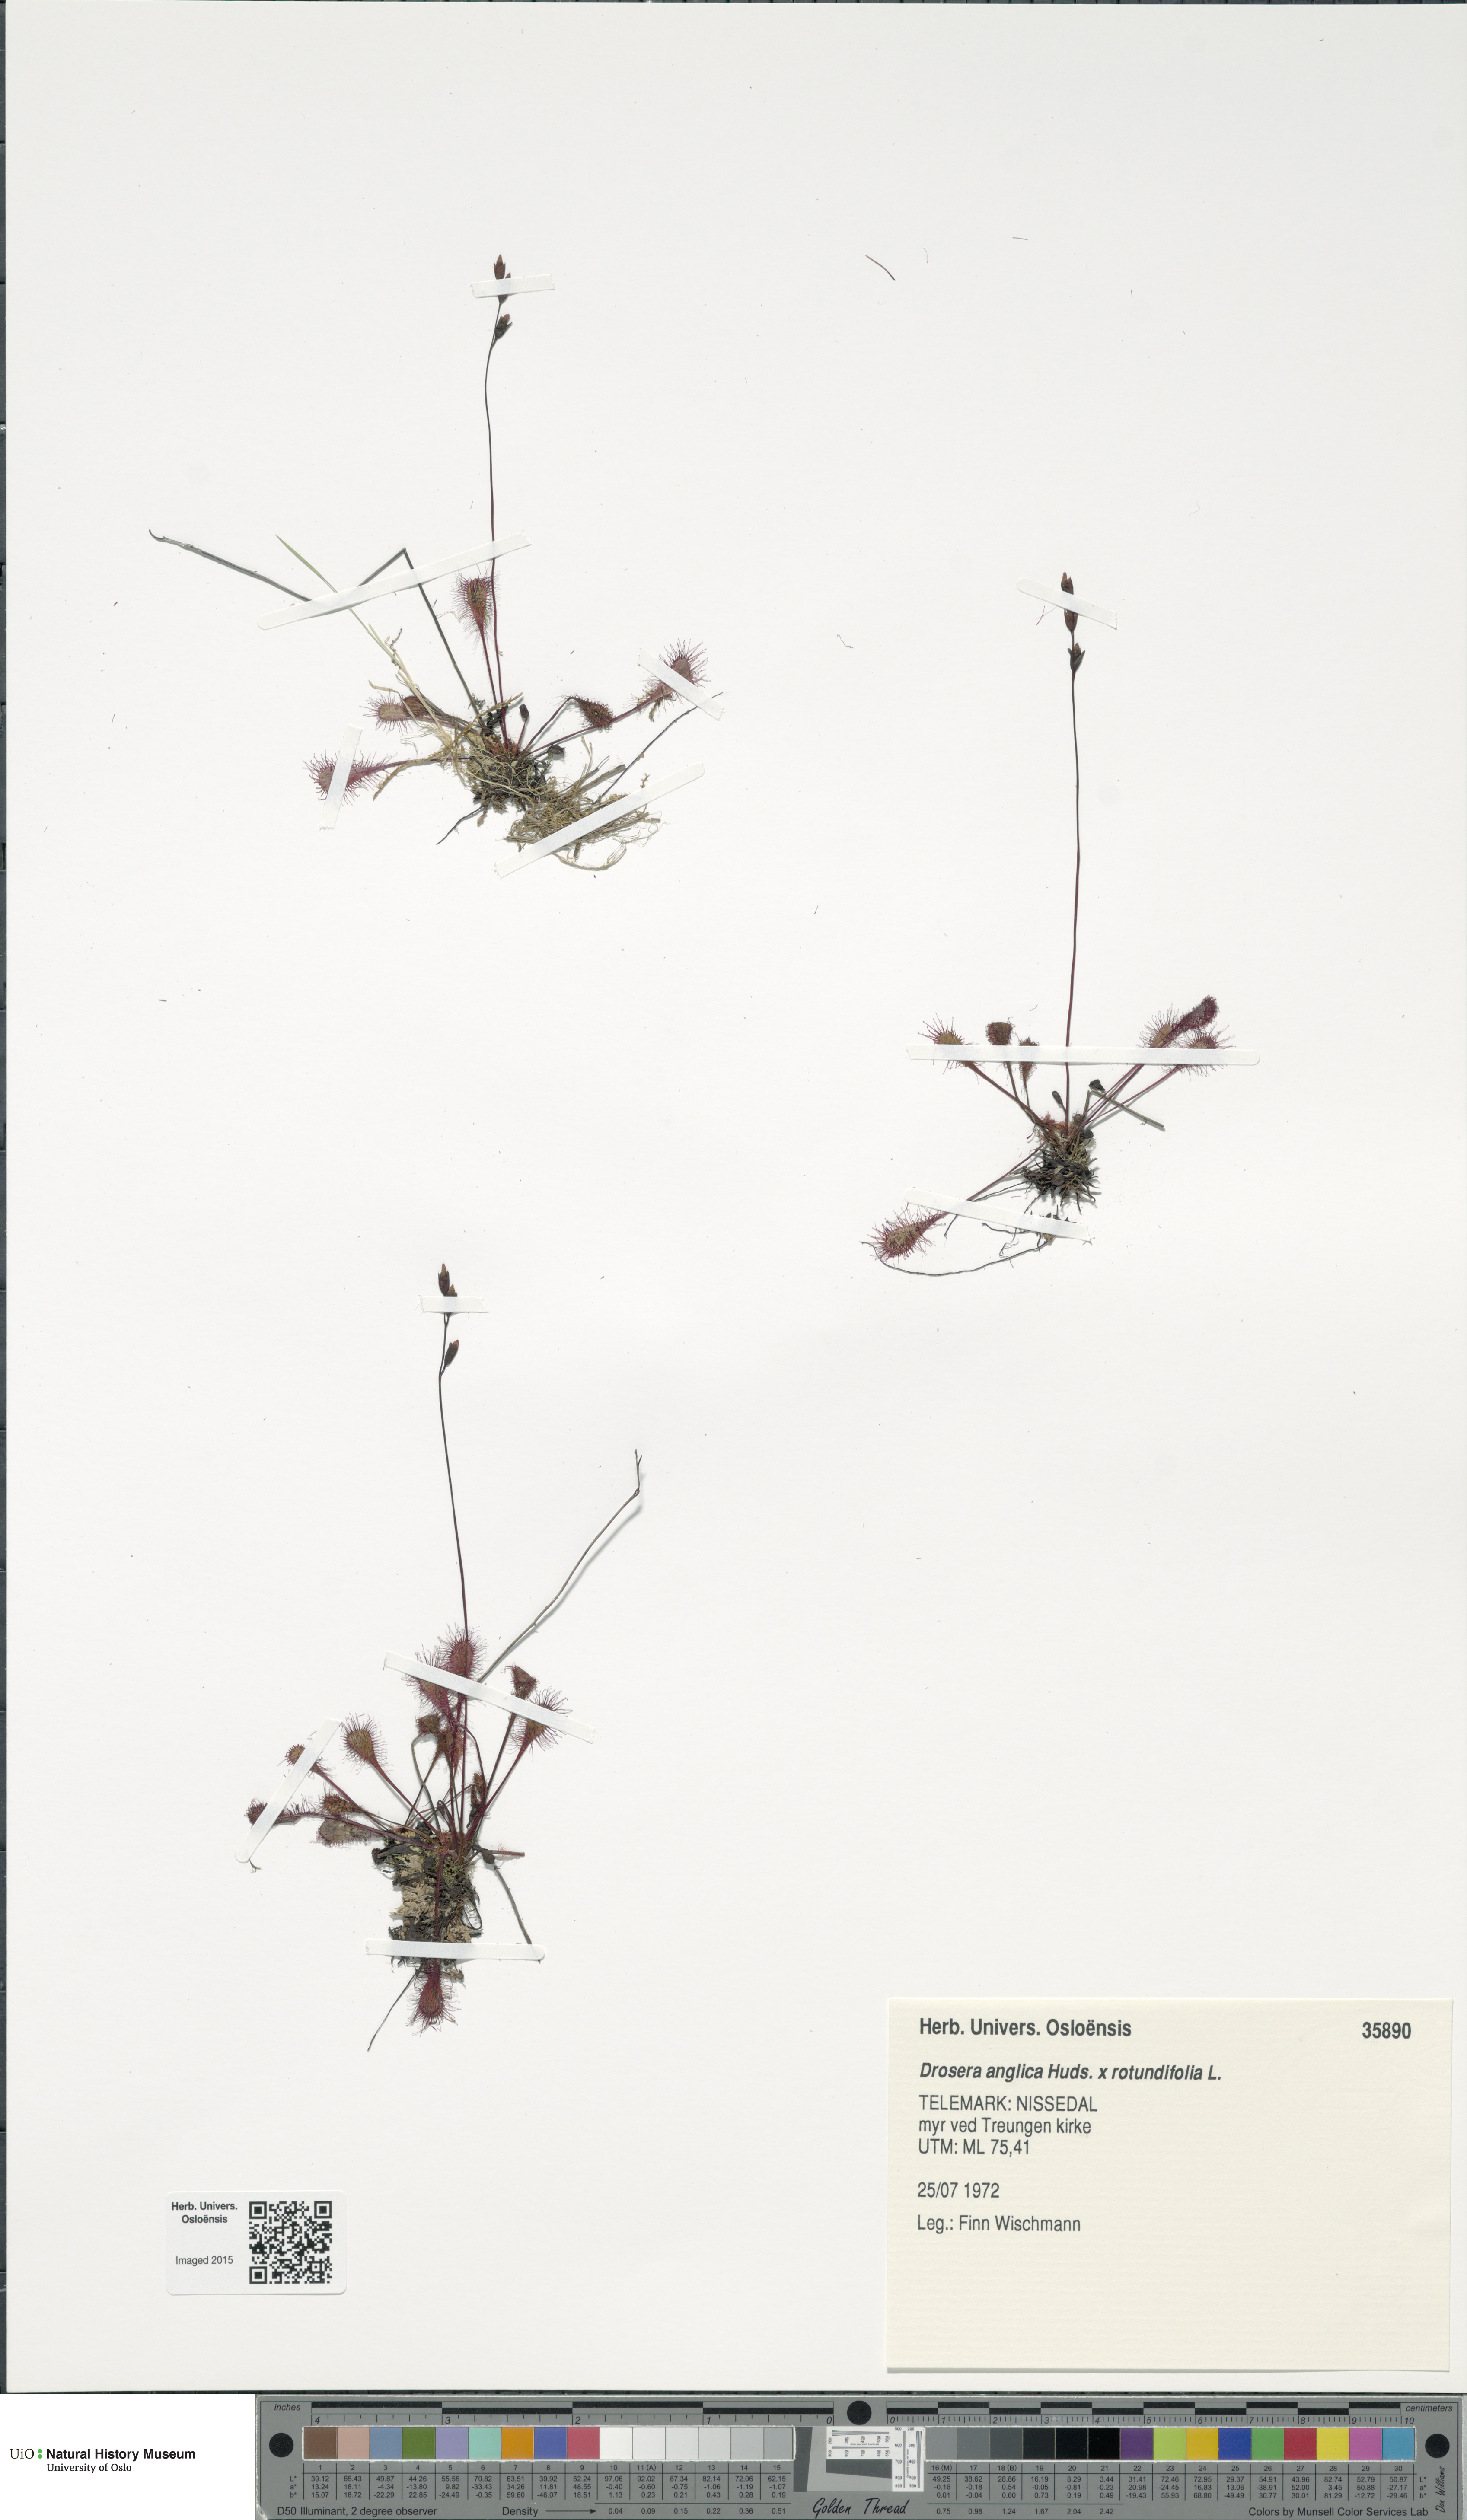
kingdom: Plantae
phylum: Tracheophyta
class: Magnoliopsida
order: Caryophyllales
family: Droseraceae
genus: Drosera
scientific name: Drosera
